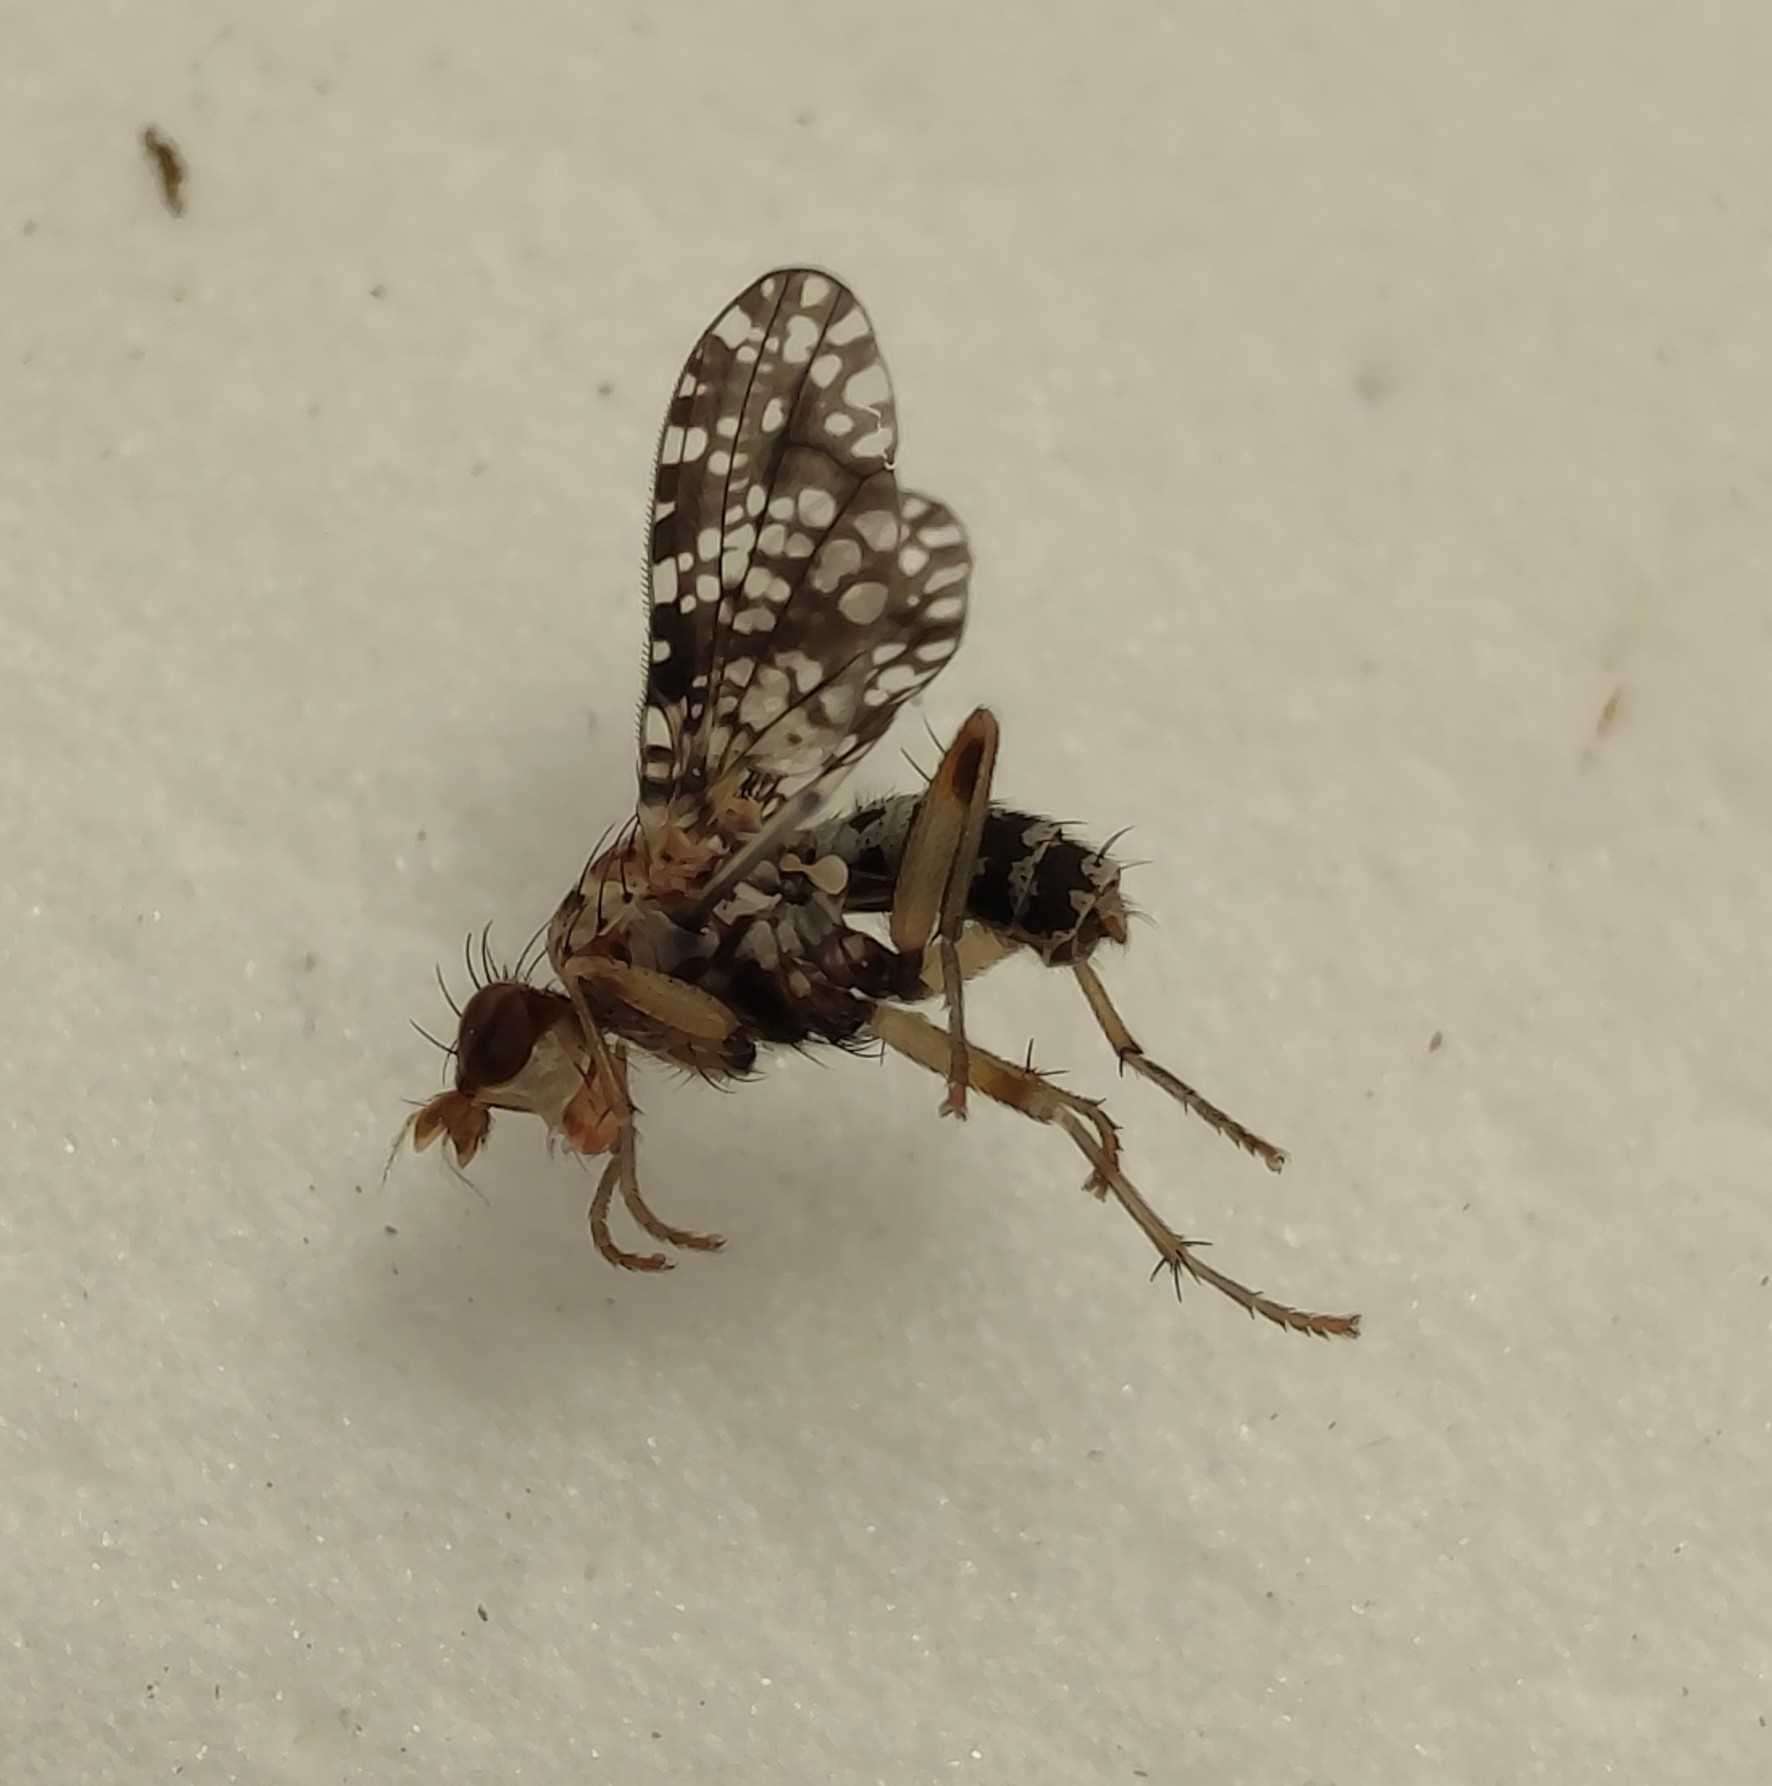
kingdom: Animalia
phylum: Arthropoda
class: Insecta
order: Diptera
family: Sciomyzidae
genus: Trypetoptera
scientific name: Trypetoptera punctulata
